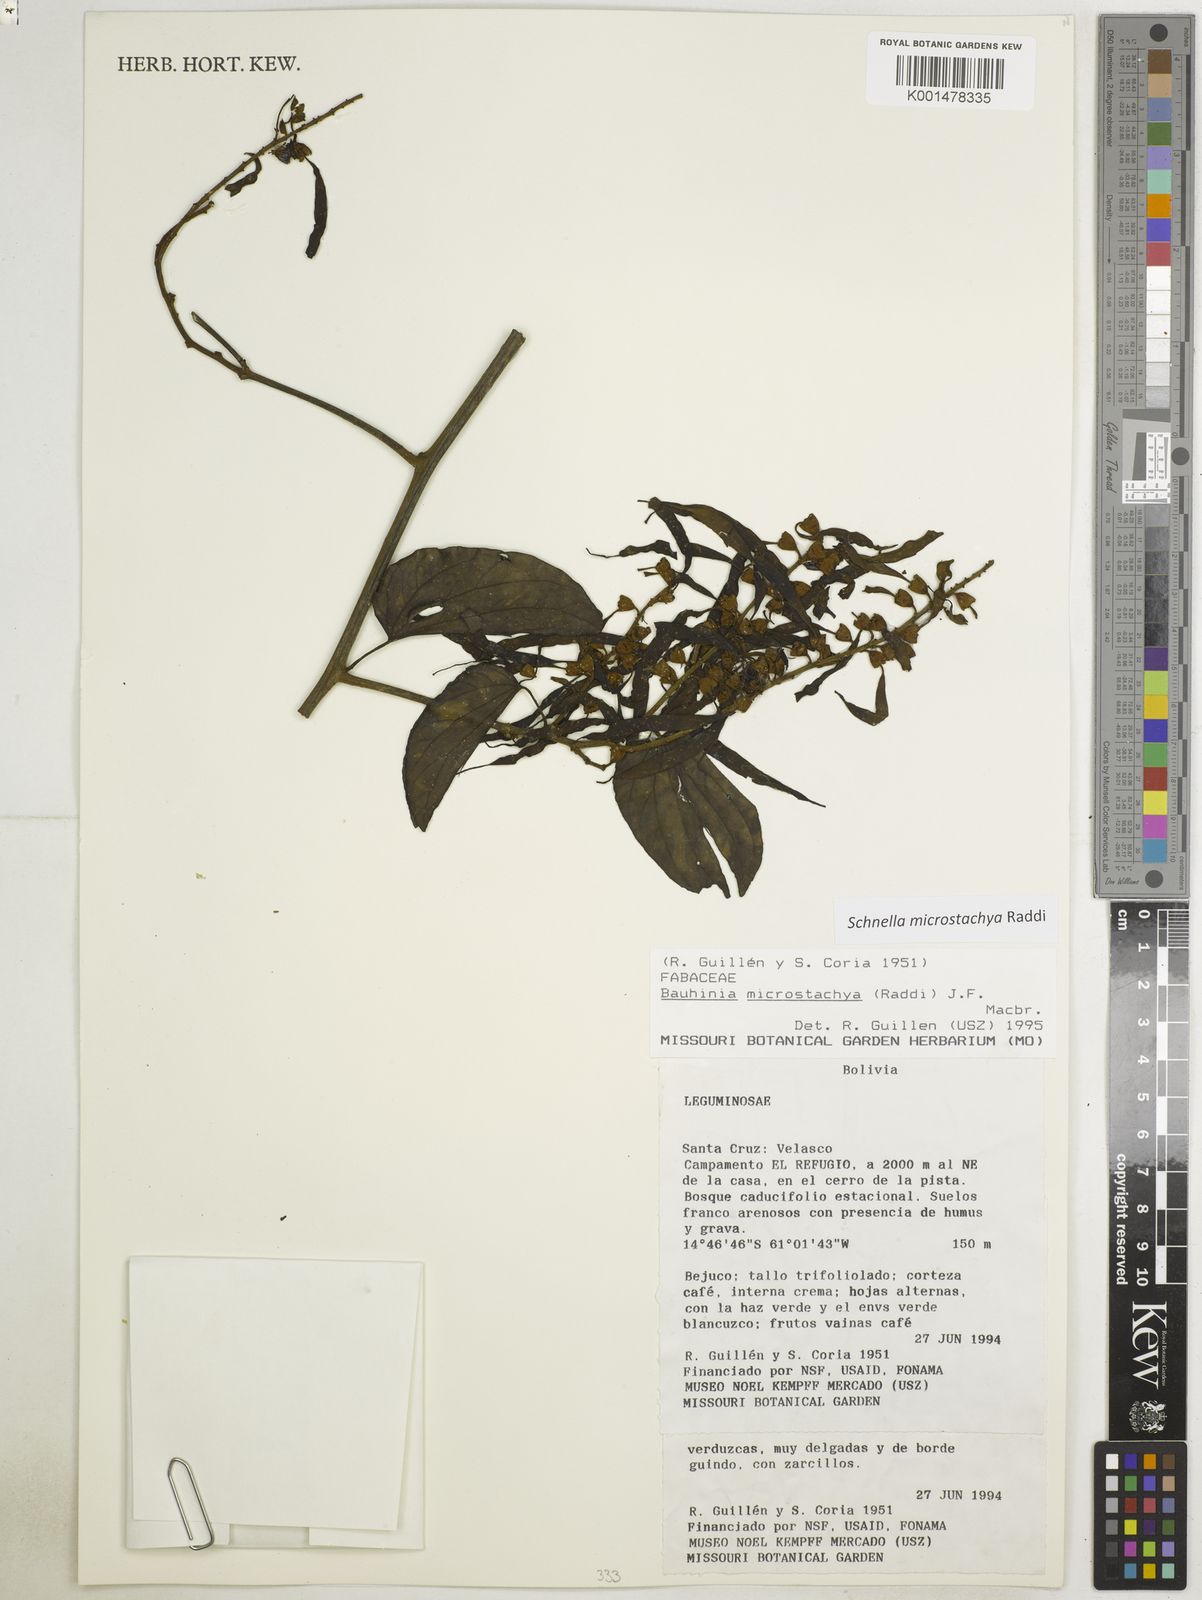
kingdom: Plantae
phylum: Tracheophyta
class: Magnoliopsida
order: Fabales
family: Fabaceae
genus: Schnella
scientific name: Schnella macrostachya
